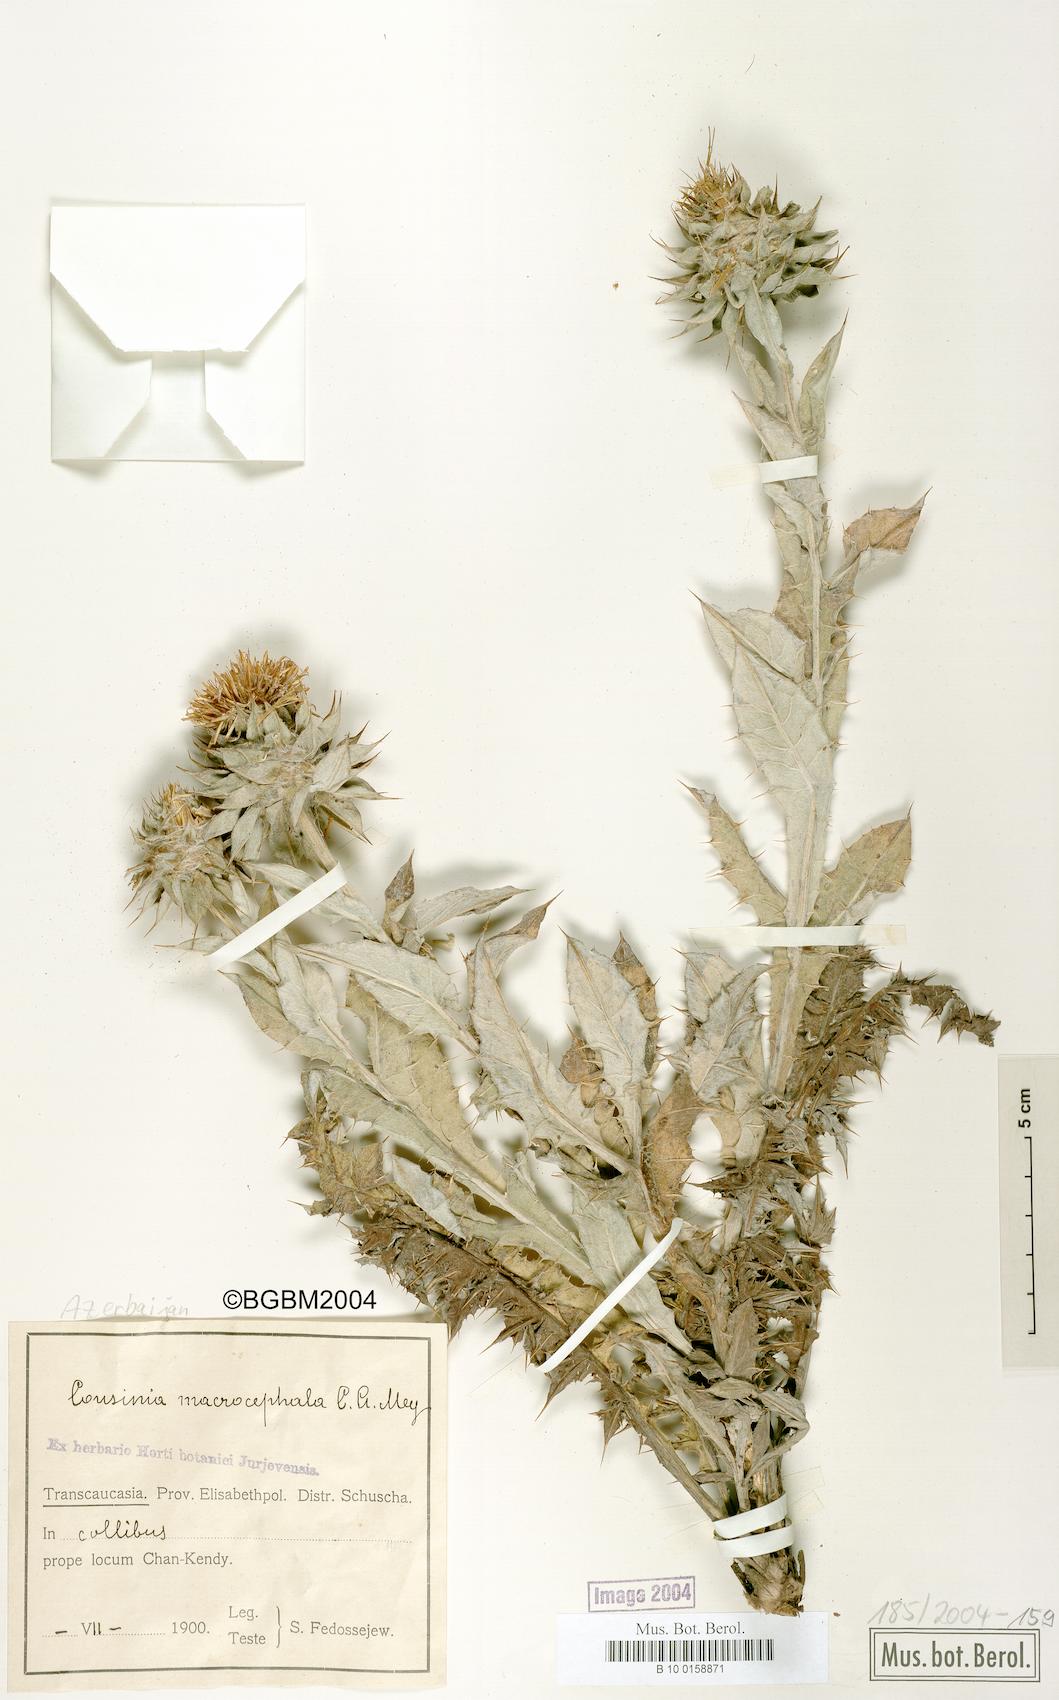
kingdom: Plantae
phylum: Tracheophyta
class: Magnoliopsida
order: Asterales
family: Asteraceae
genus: Cousinia
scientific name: Cousinia macrocephala
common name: Macrocephalous cousinia
